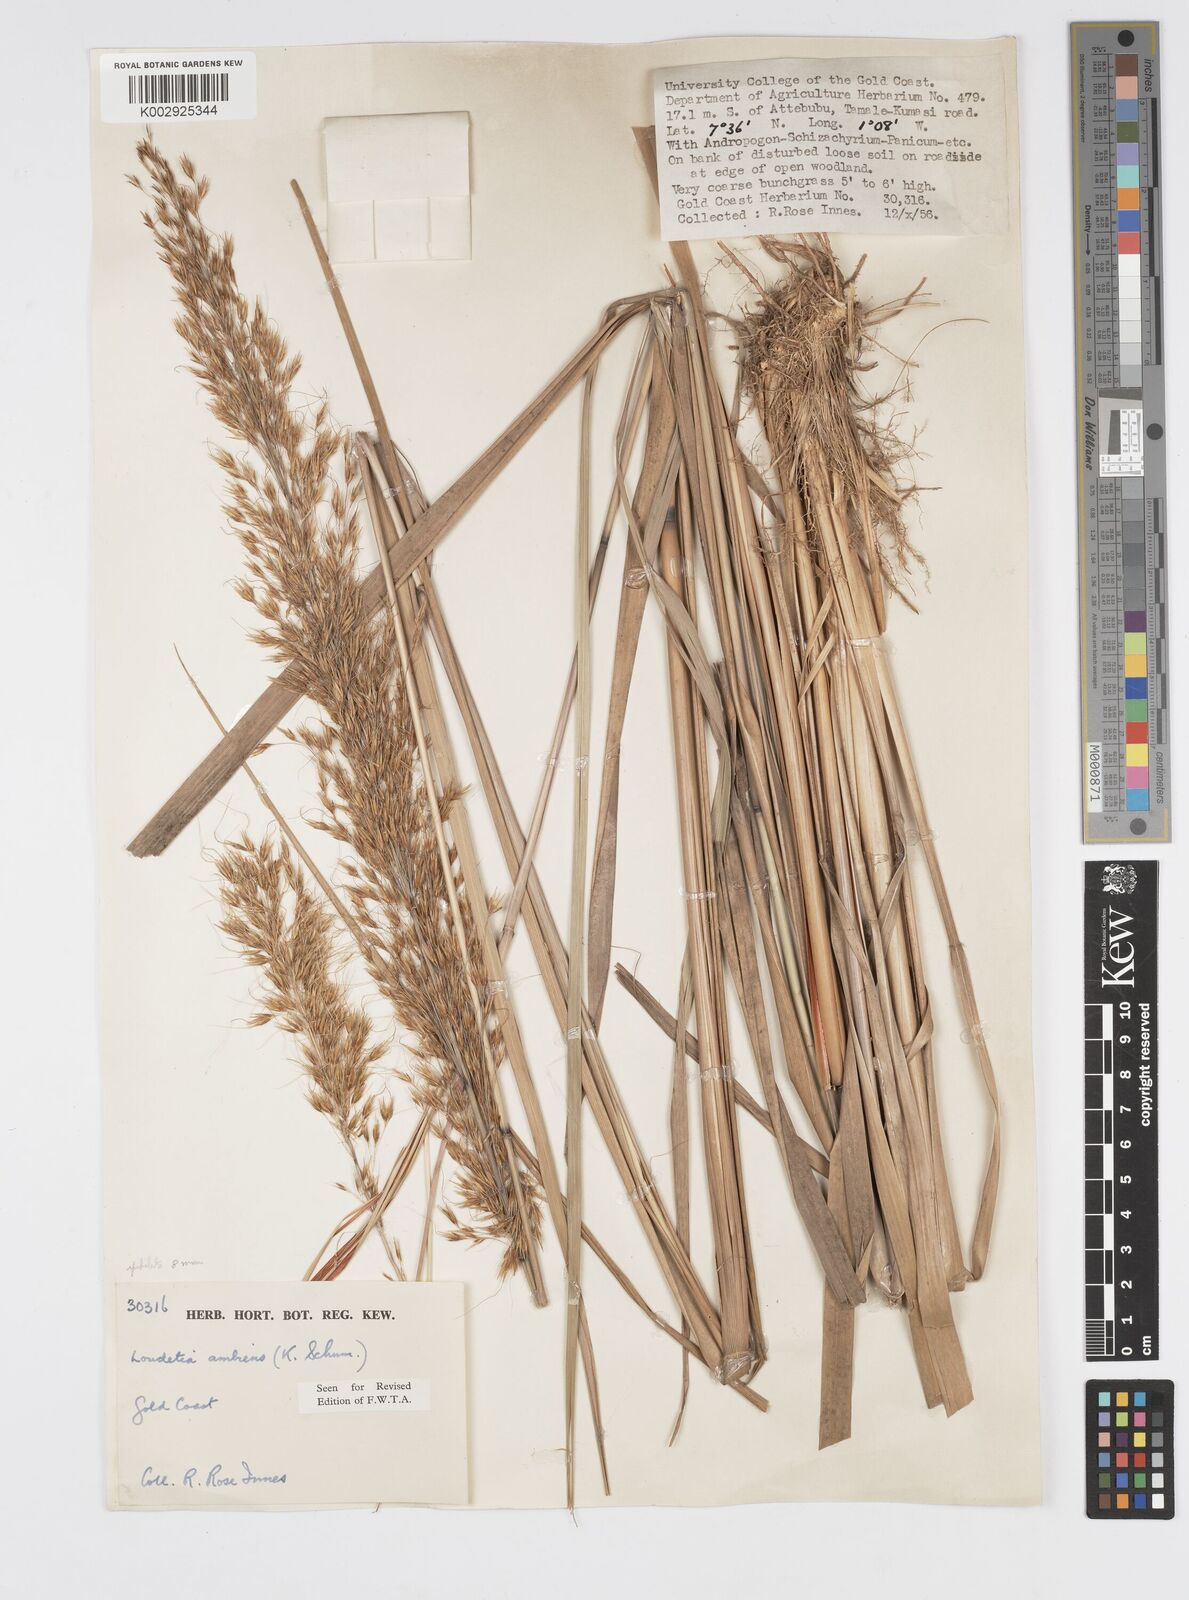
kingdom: Plantae
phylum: Tracheophyta
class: Liliopsida
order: Poales
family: Poaceae
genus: Loudetiopsis
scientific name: Loudetiopsis ambiens
